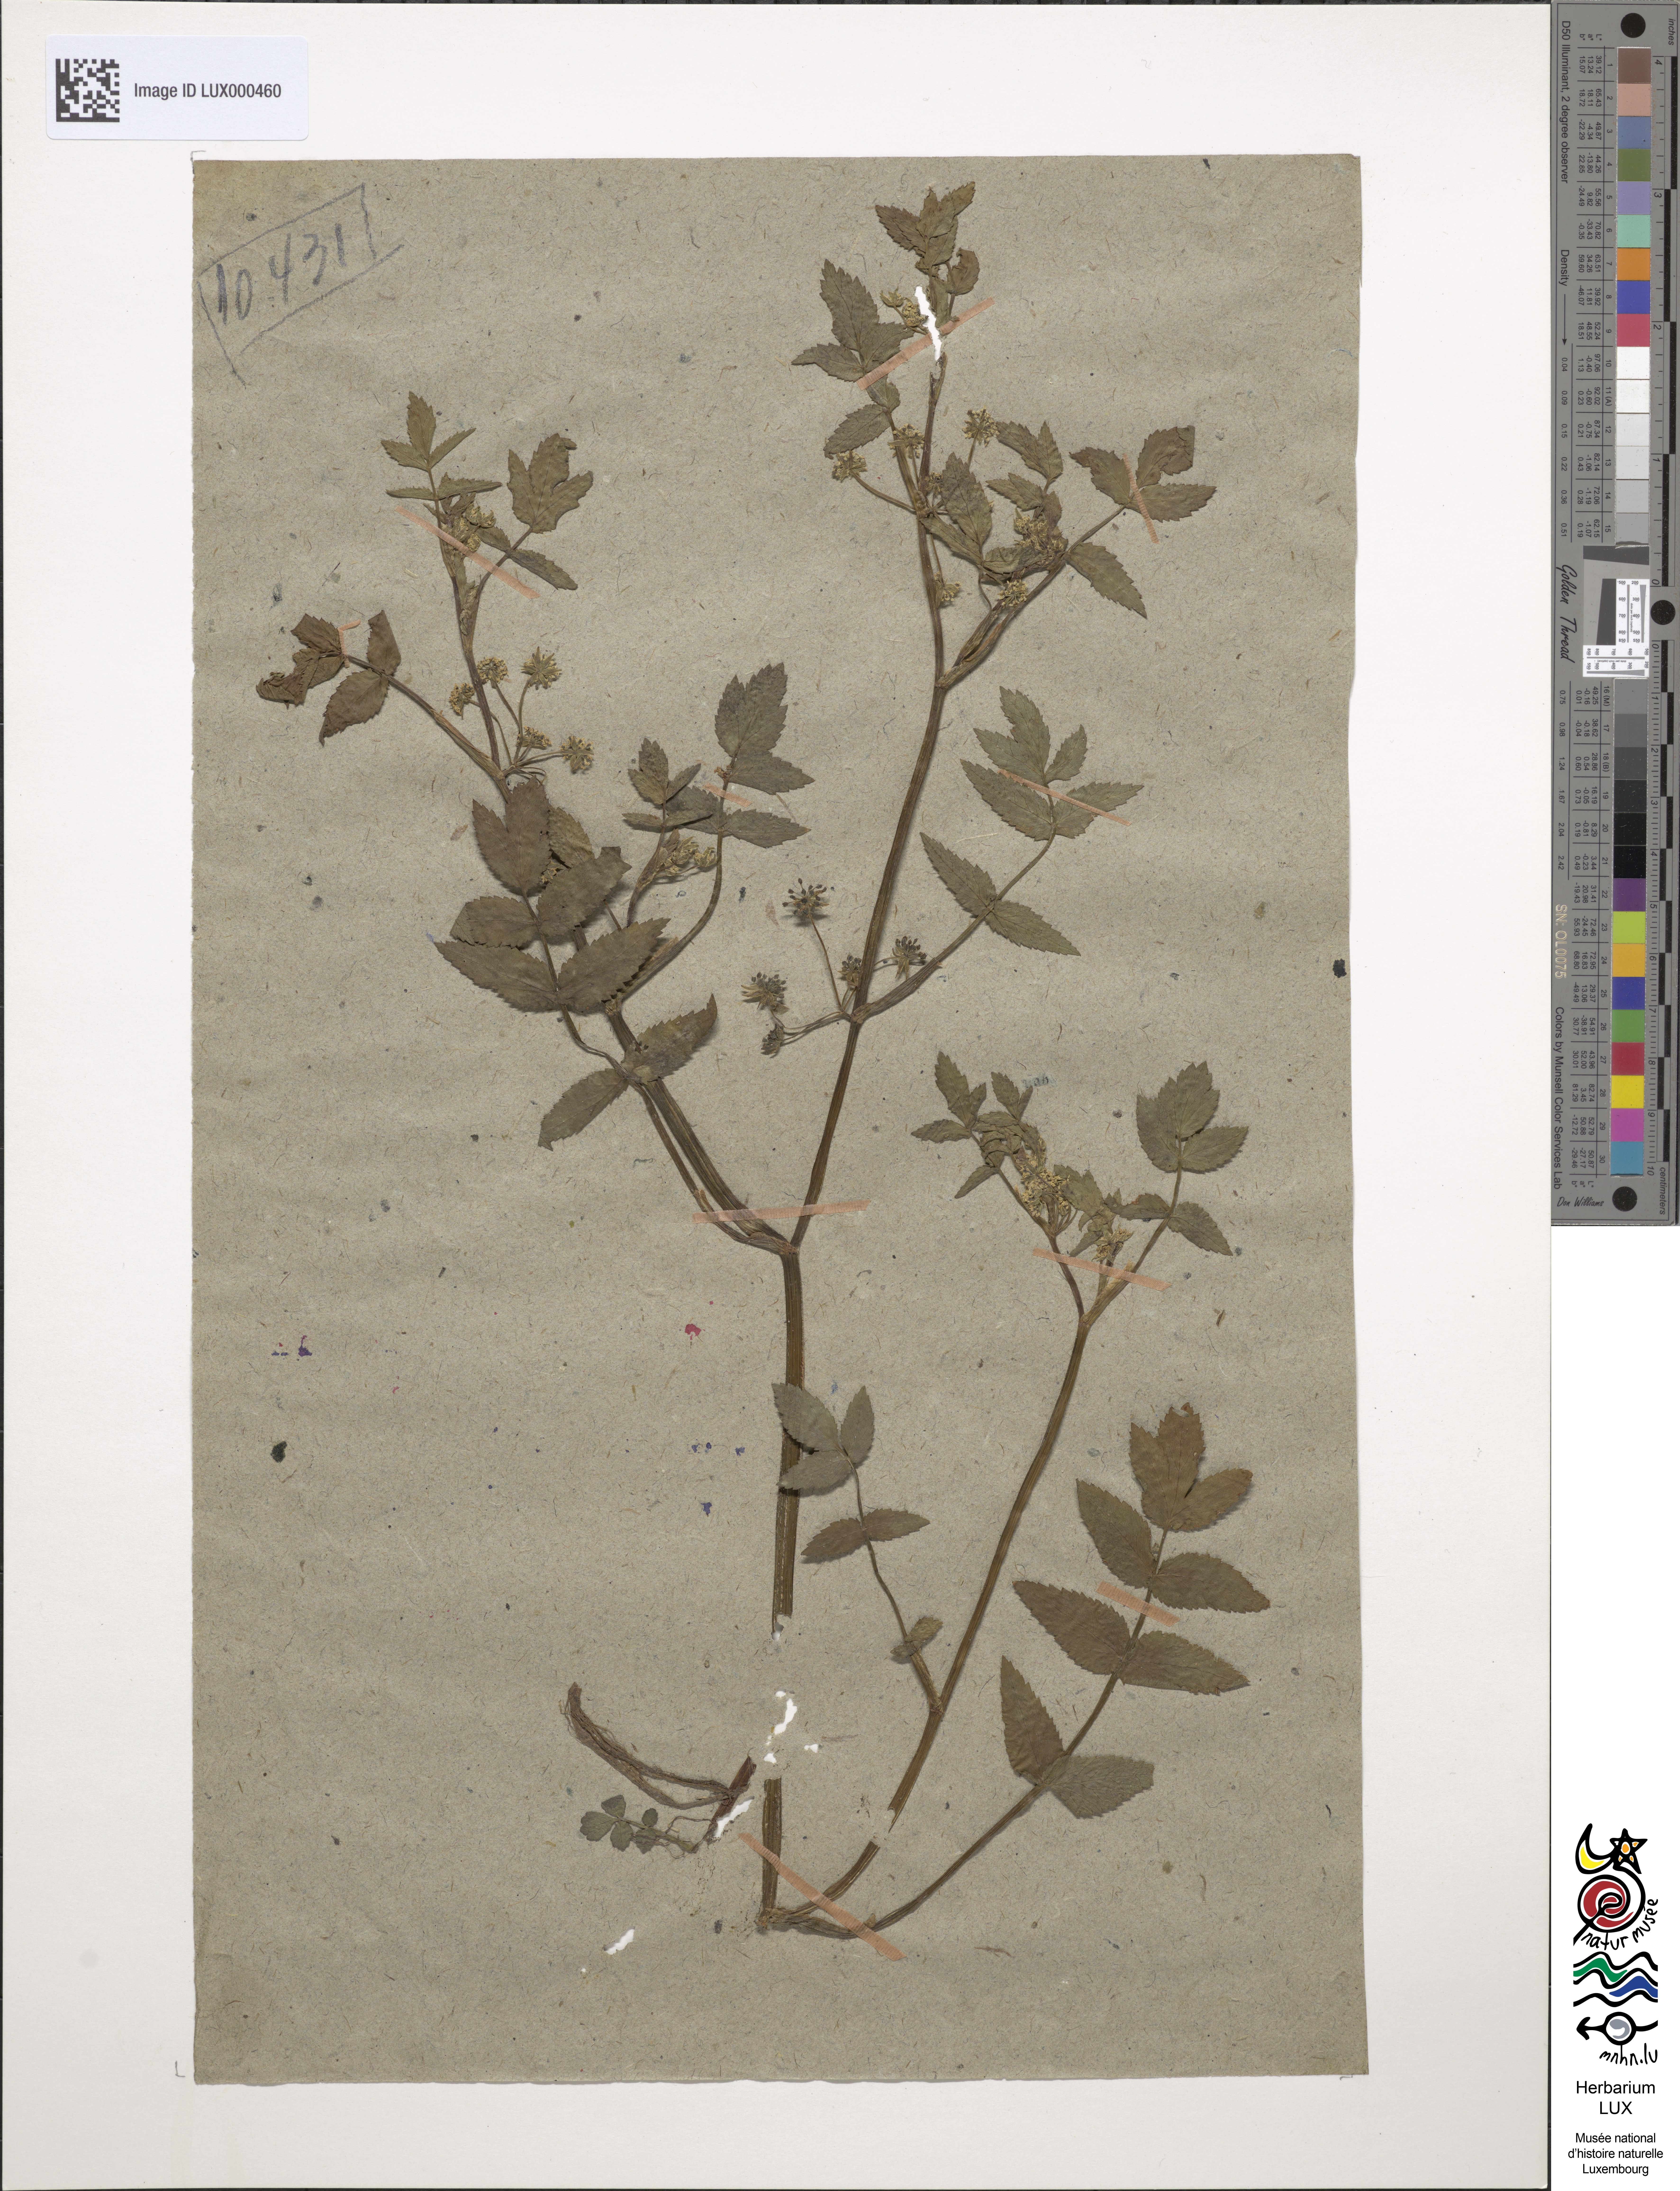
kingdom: Plantae
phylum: Tracheophyta
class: Magnoliopsida
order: Apiales
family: Apiaceae
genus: Helosciadium
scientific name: Helosciadium nodiflorum
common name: Fool's-watercress
